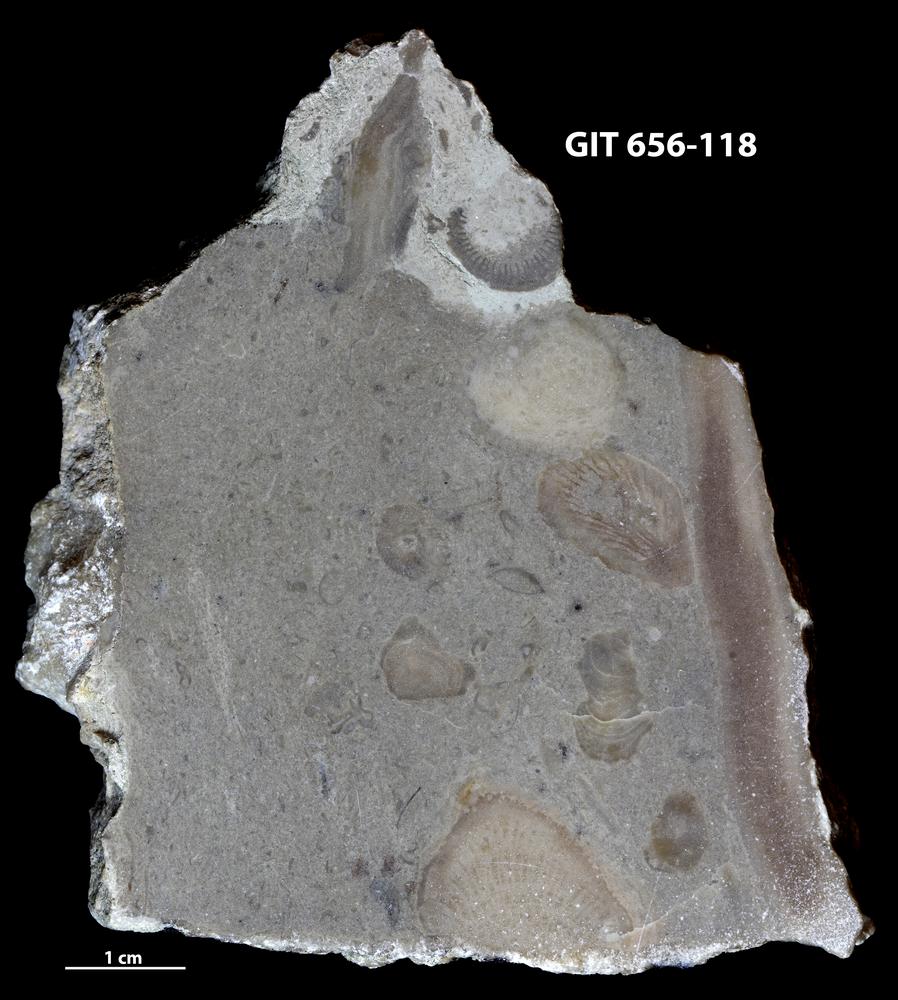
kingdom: Animalia
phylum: Porifera
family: Stromatoporidae
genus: Stromatopora
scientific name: Stromatopora
